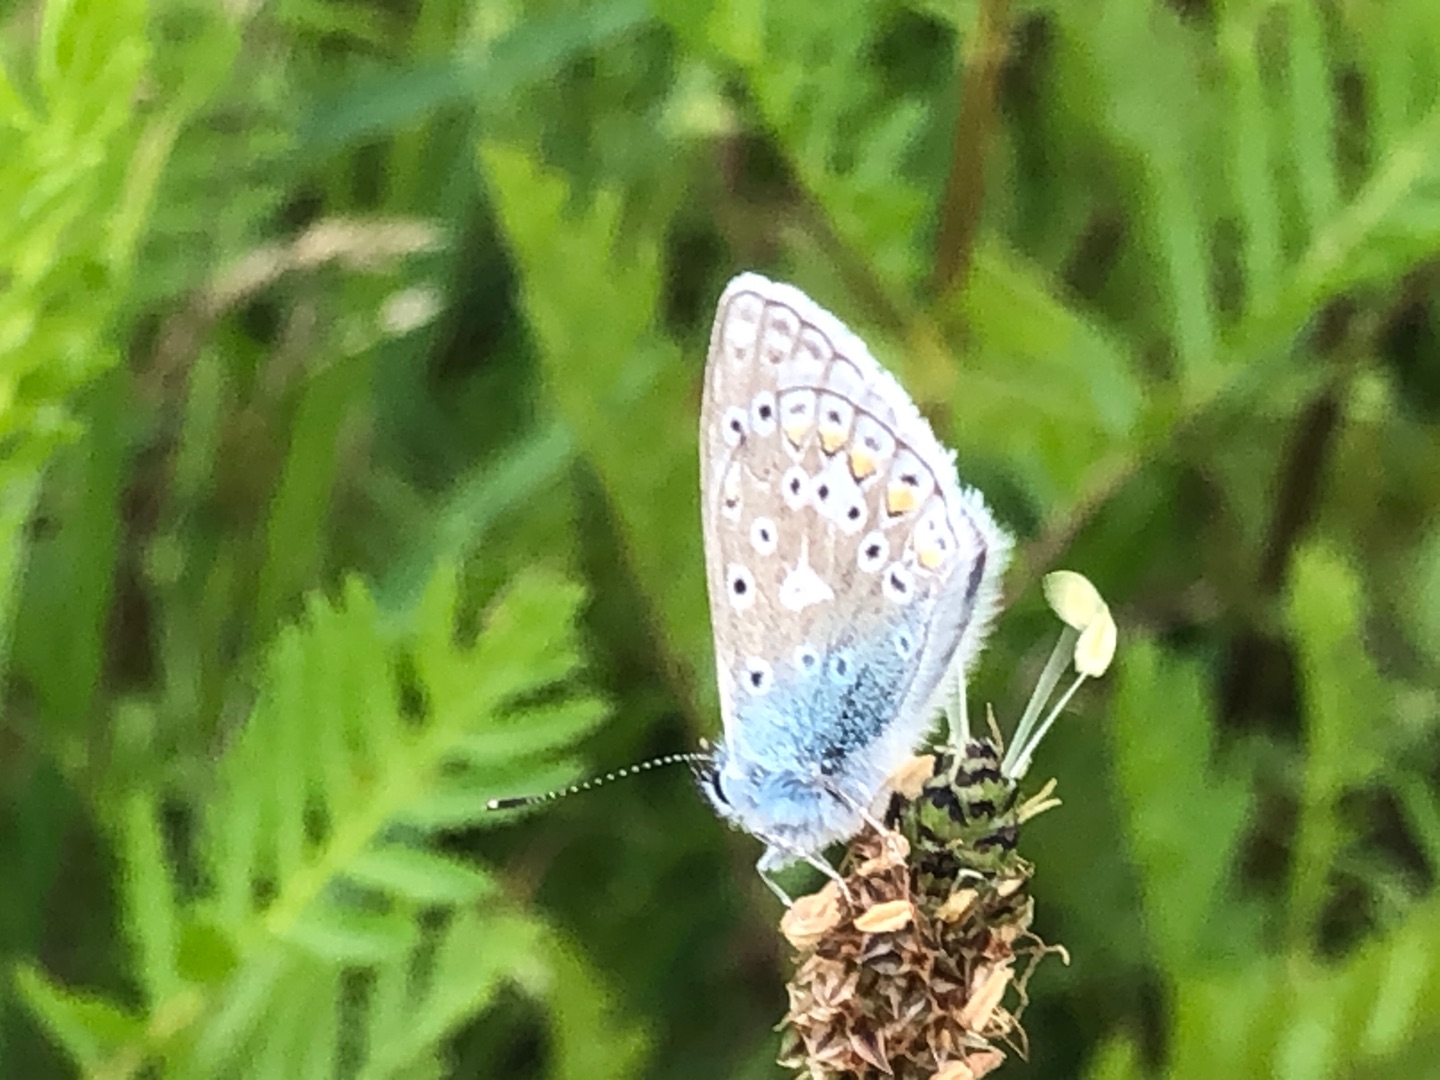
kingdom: Animalia
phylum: Arthropoda
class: Insecta
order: Lepidoptera
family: Lycaenidae
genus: Polyommatus
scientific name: Polyommatus icarus
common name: Almindelig blåfugl
